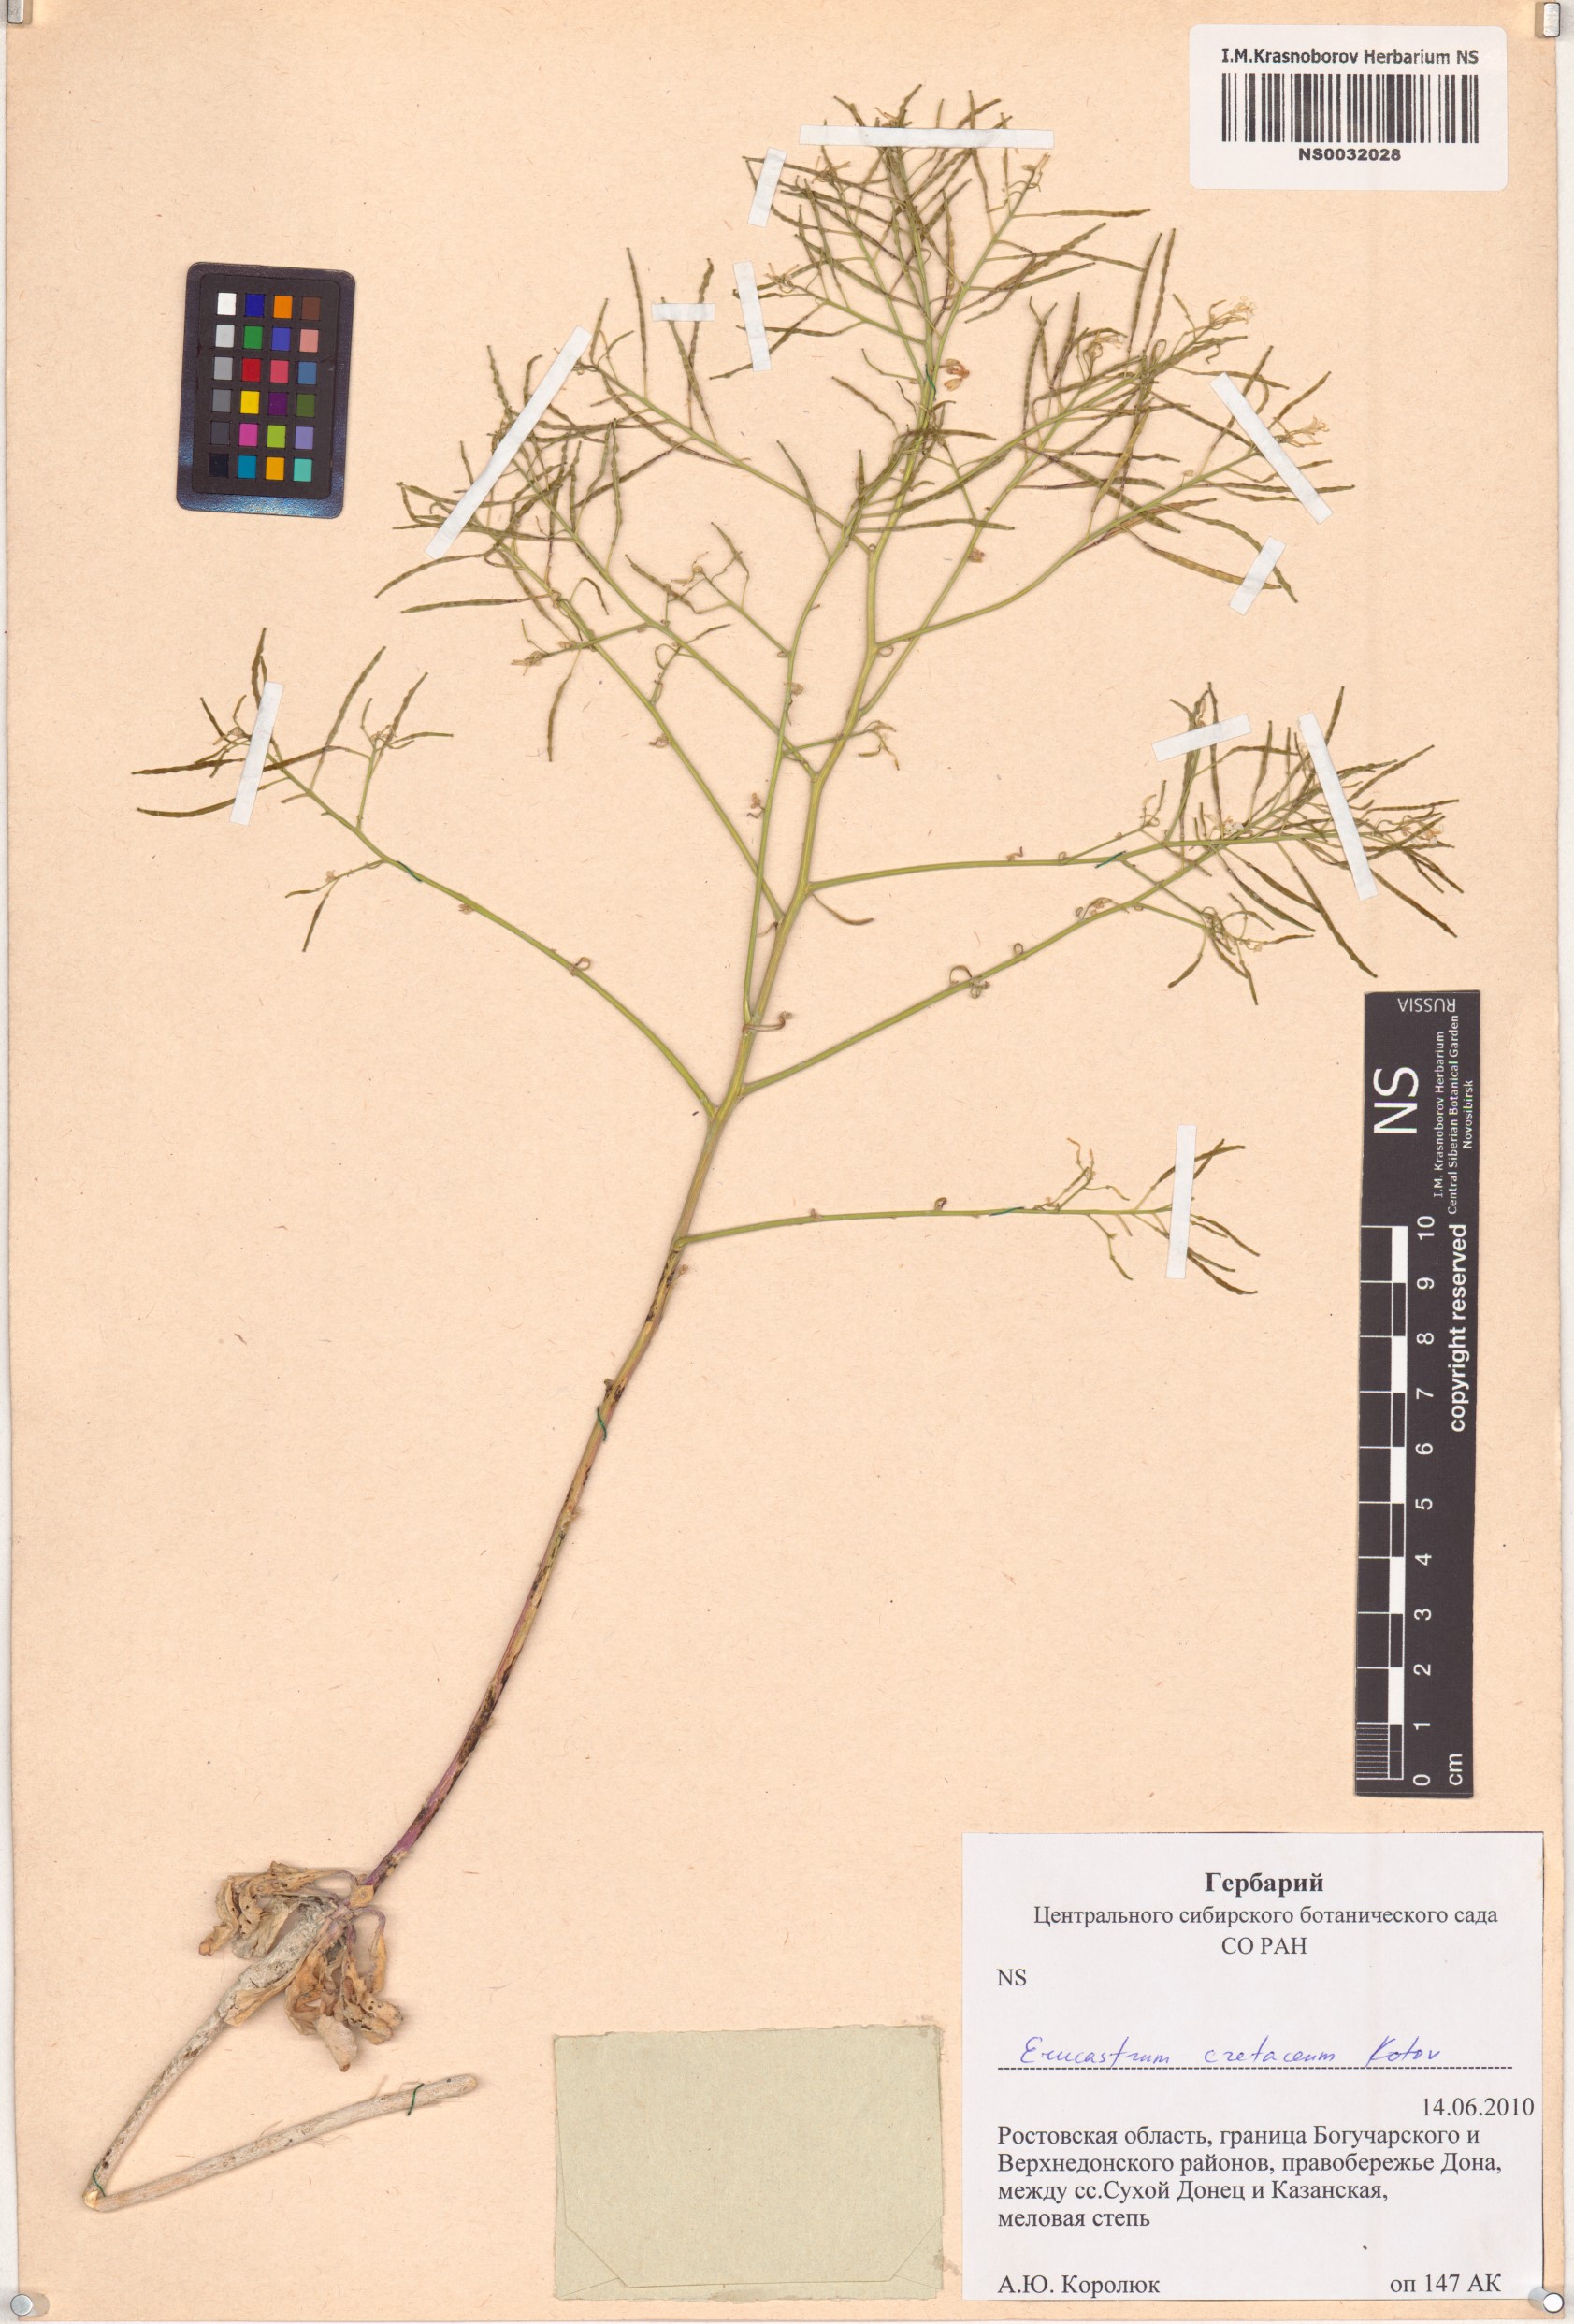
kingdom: Plantae
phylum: Tracheophyta
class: Magnoliopsida
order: Brassicales
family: Brassicaceae
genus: Guenthera
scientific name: Guenthera cretacea
